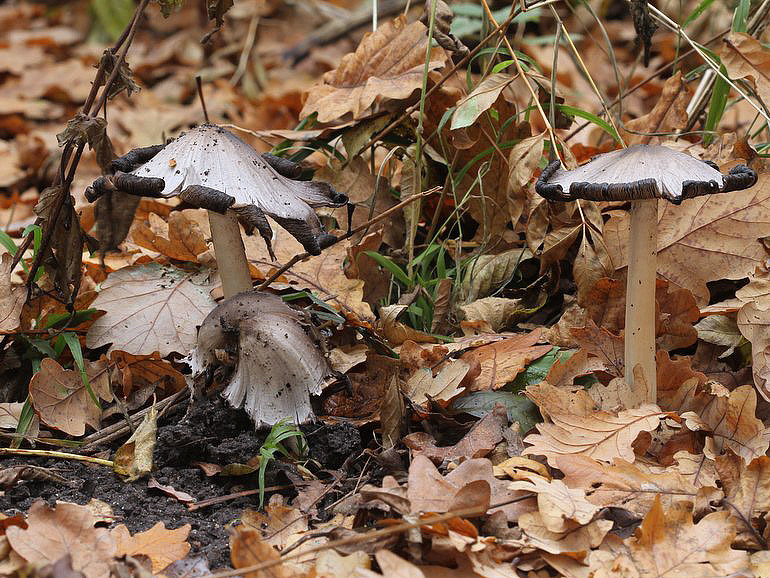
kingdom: Fungi
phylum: Basidiomycota
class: Agaricomycetes
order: Agaricales
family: Psathyrellaceae
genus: Coprinopsis
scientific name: Coprinopsis atramentaria
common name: almindelig blækhat
